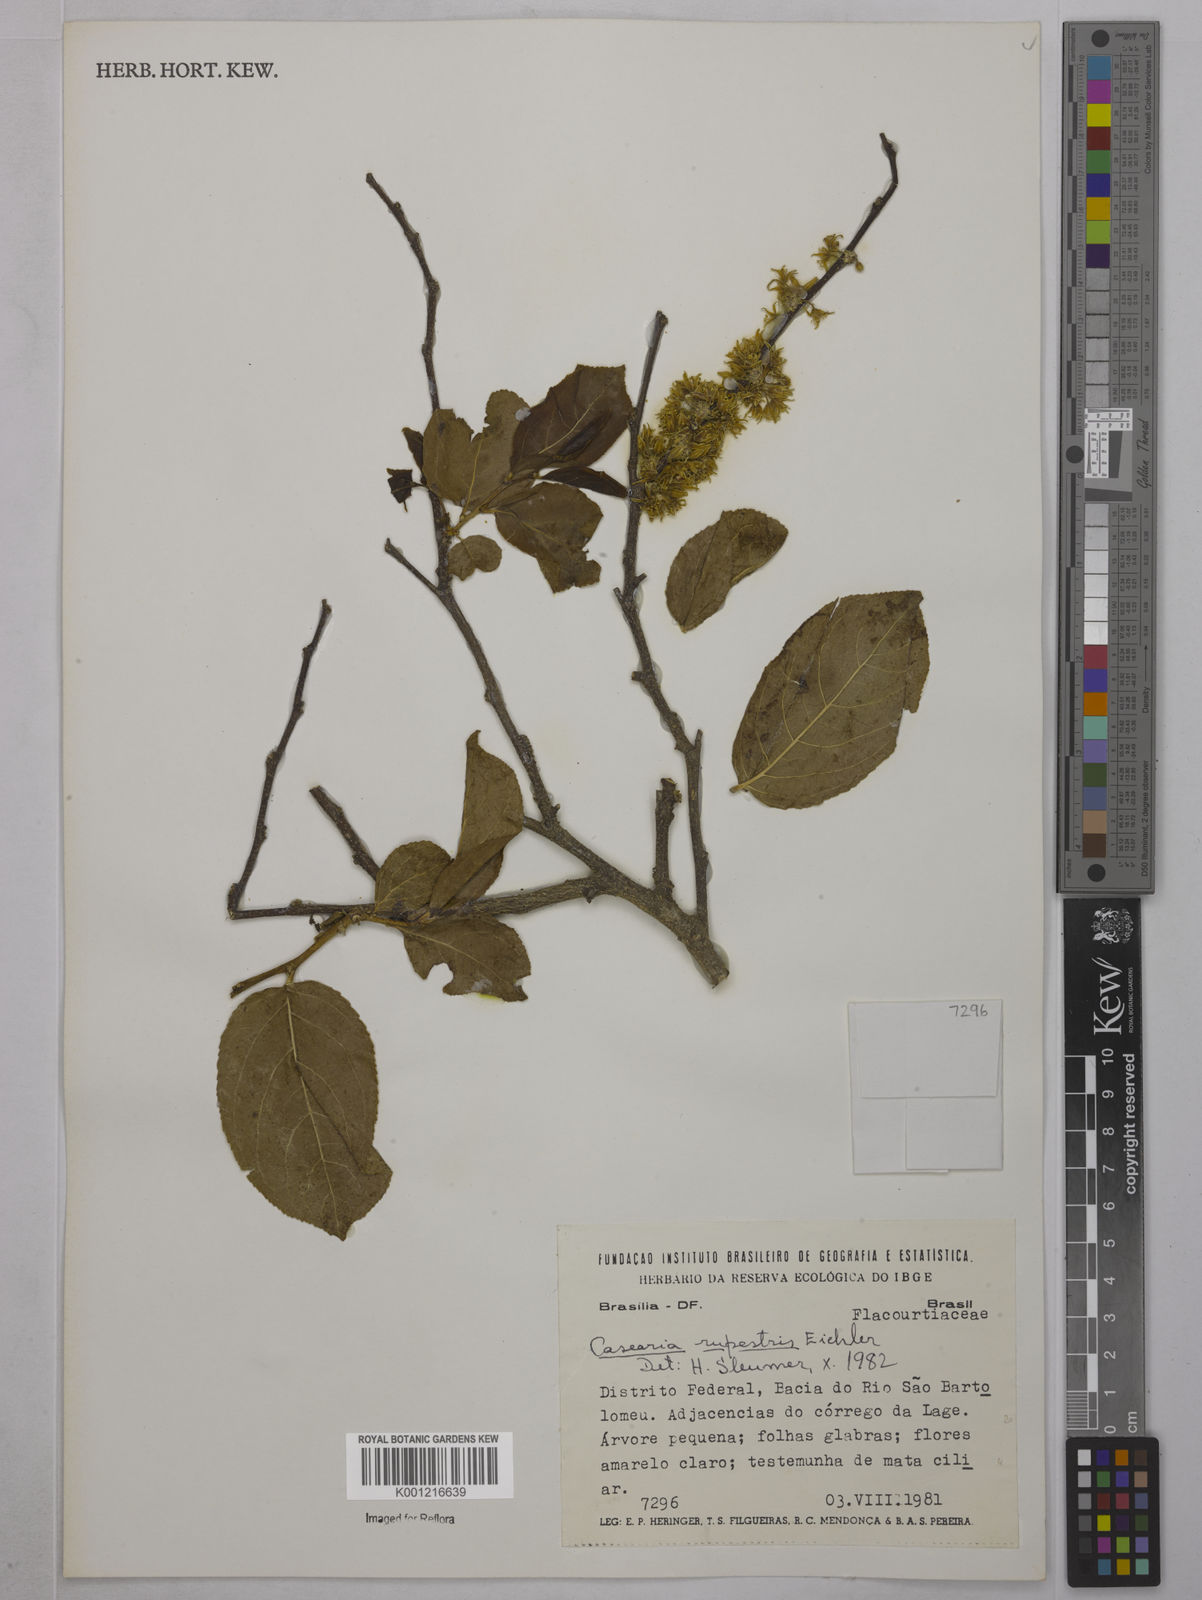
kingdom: Plantae
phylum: Tracheophyta
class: Magnoliopsida
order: Malpighiales
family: Salicaceae
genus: Casearia
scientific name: Casearia rupestris
